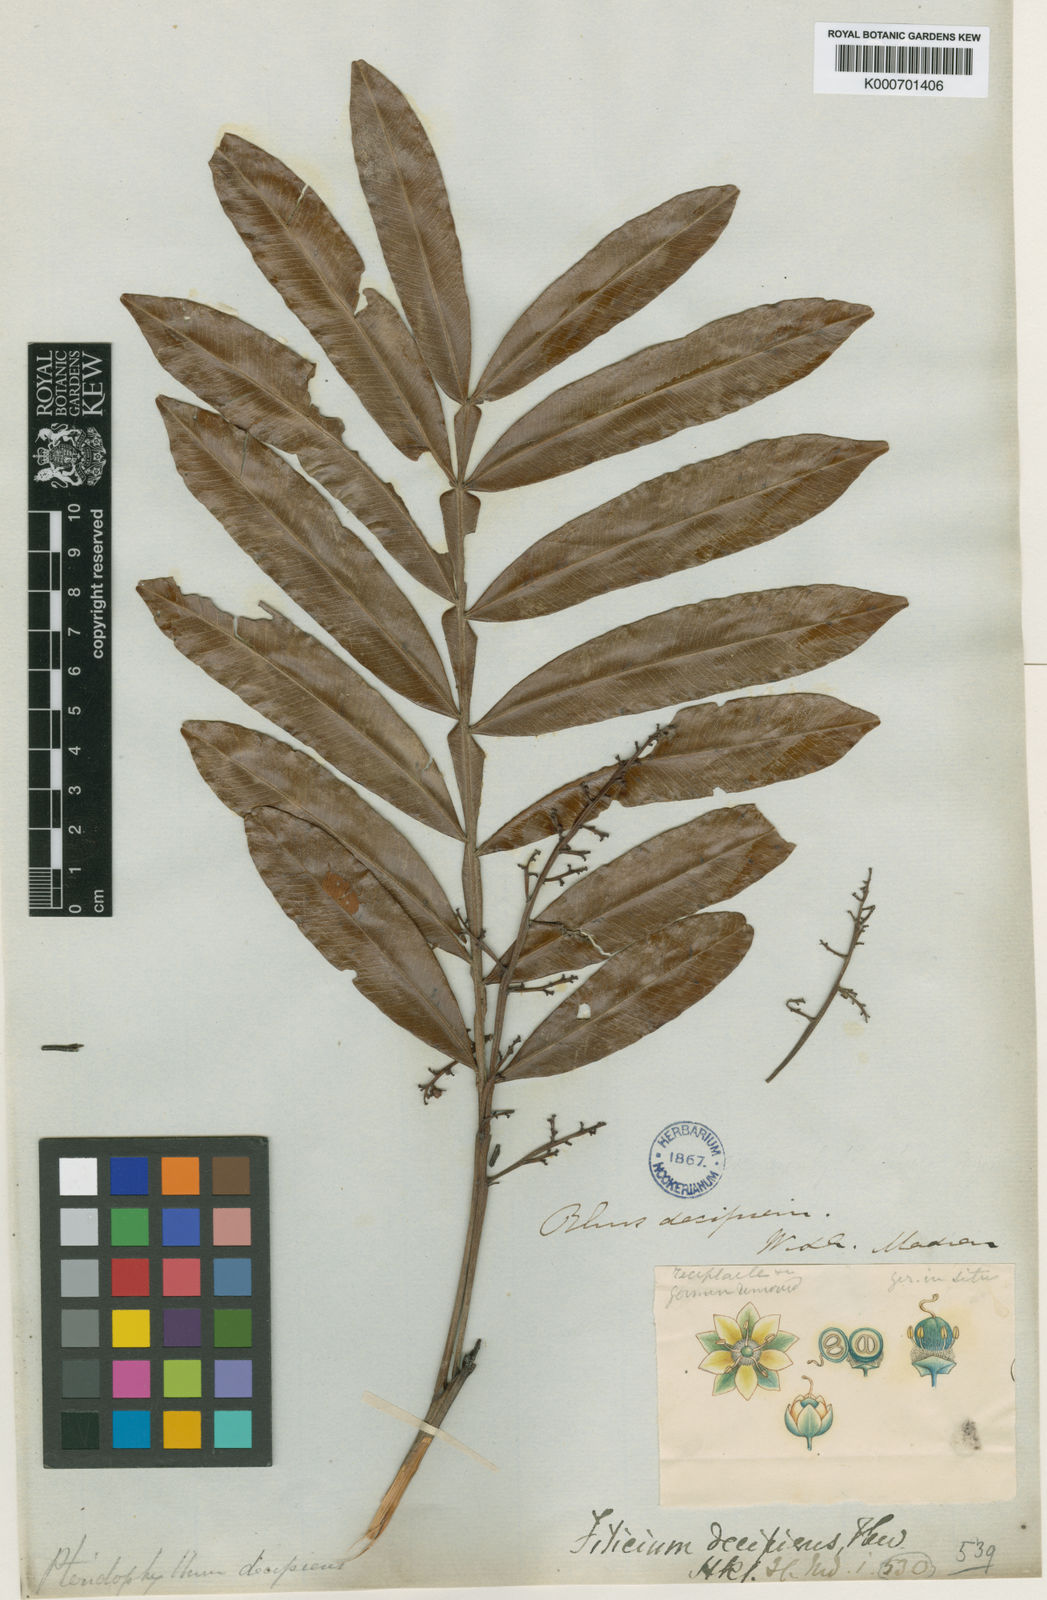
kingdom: Plantae
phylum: Tracheophyta
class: Magnoliopsida
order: Sapindales
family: Sapindaceae
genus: Filicium
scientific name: Filicium decipiens
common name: Ferntree
